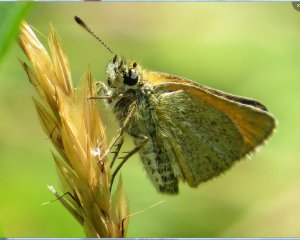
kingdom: Animalia
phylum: Arthropoda
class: Insecta
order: Lepidoptera
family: Hesperiidae
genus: Polites
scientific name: Polites themistocles
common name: Tawny-edged Skipper
